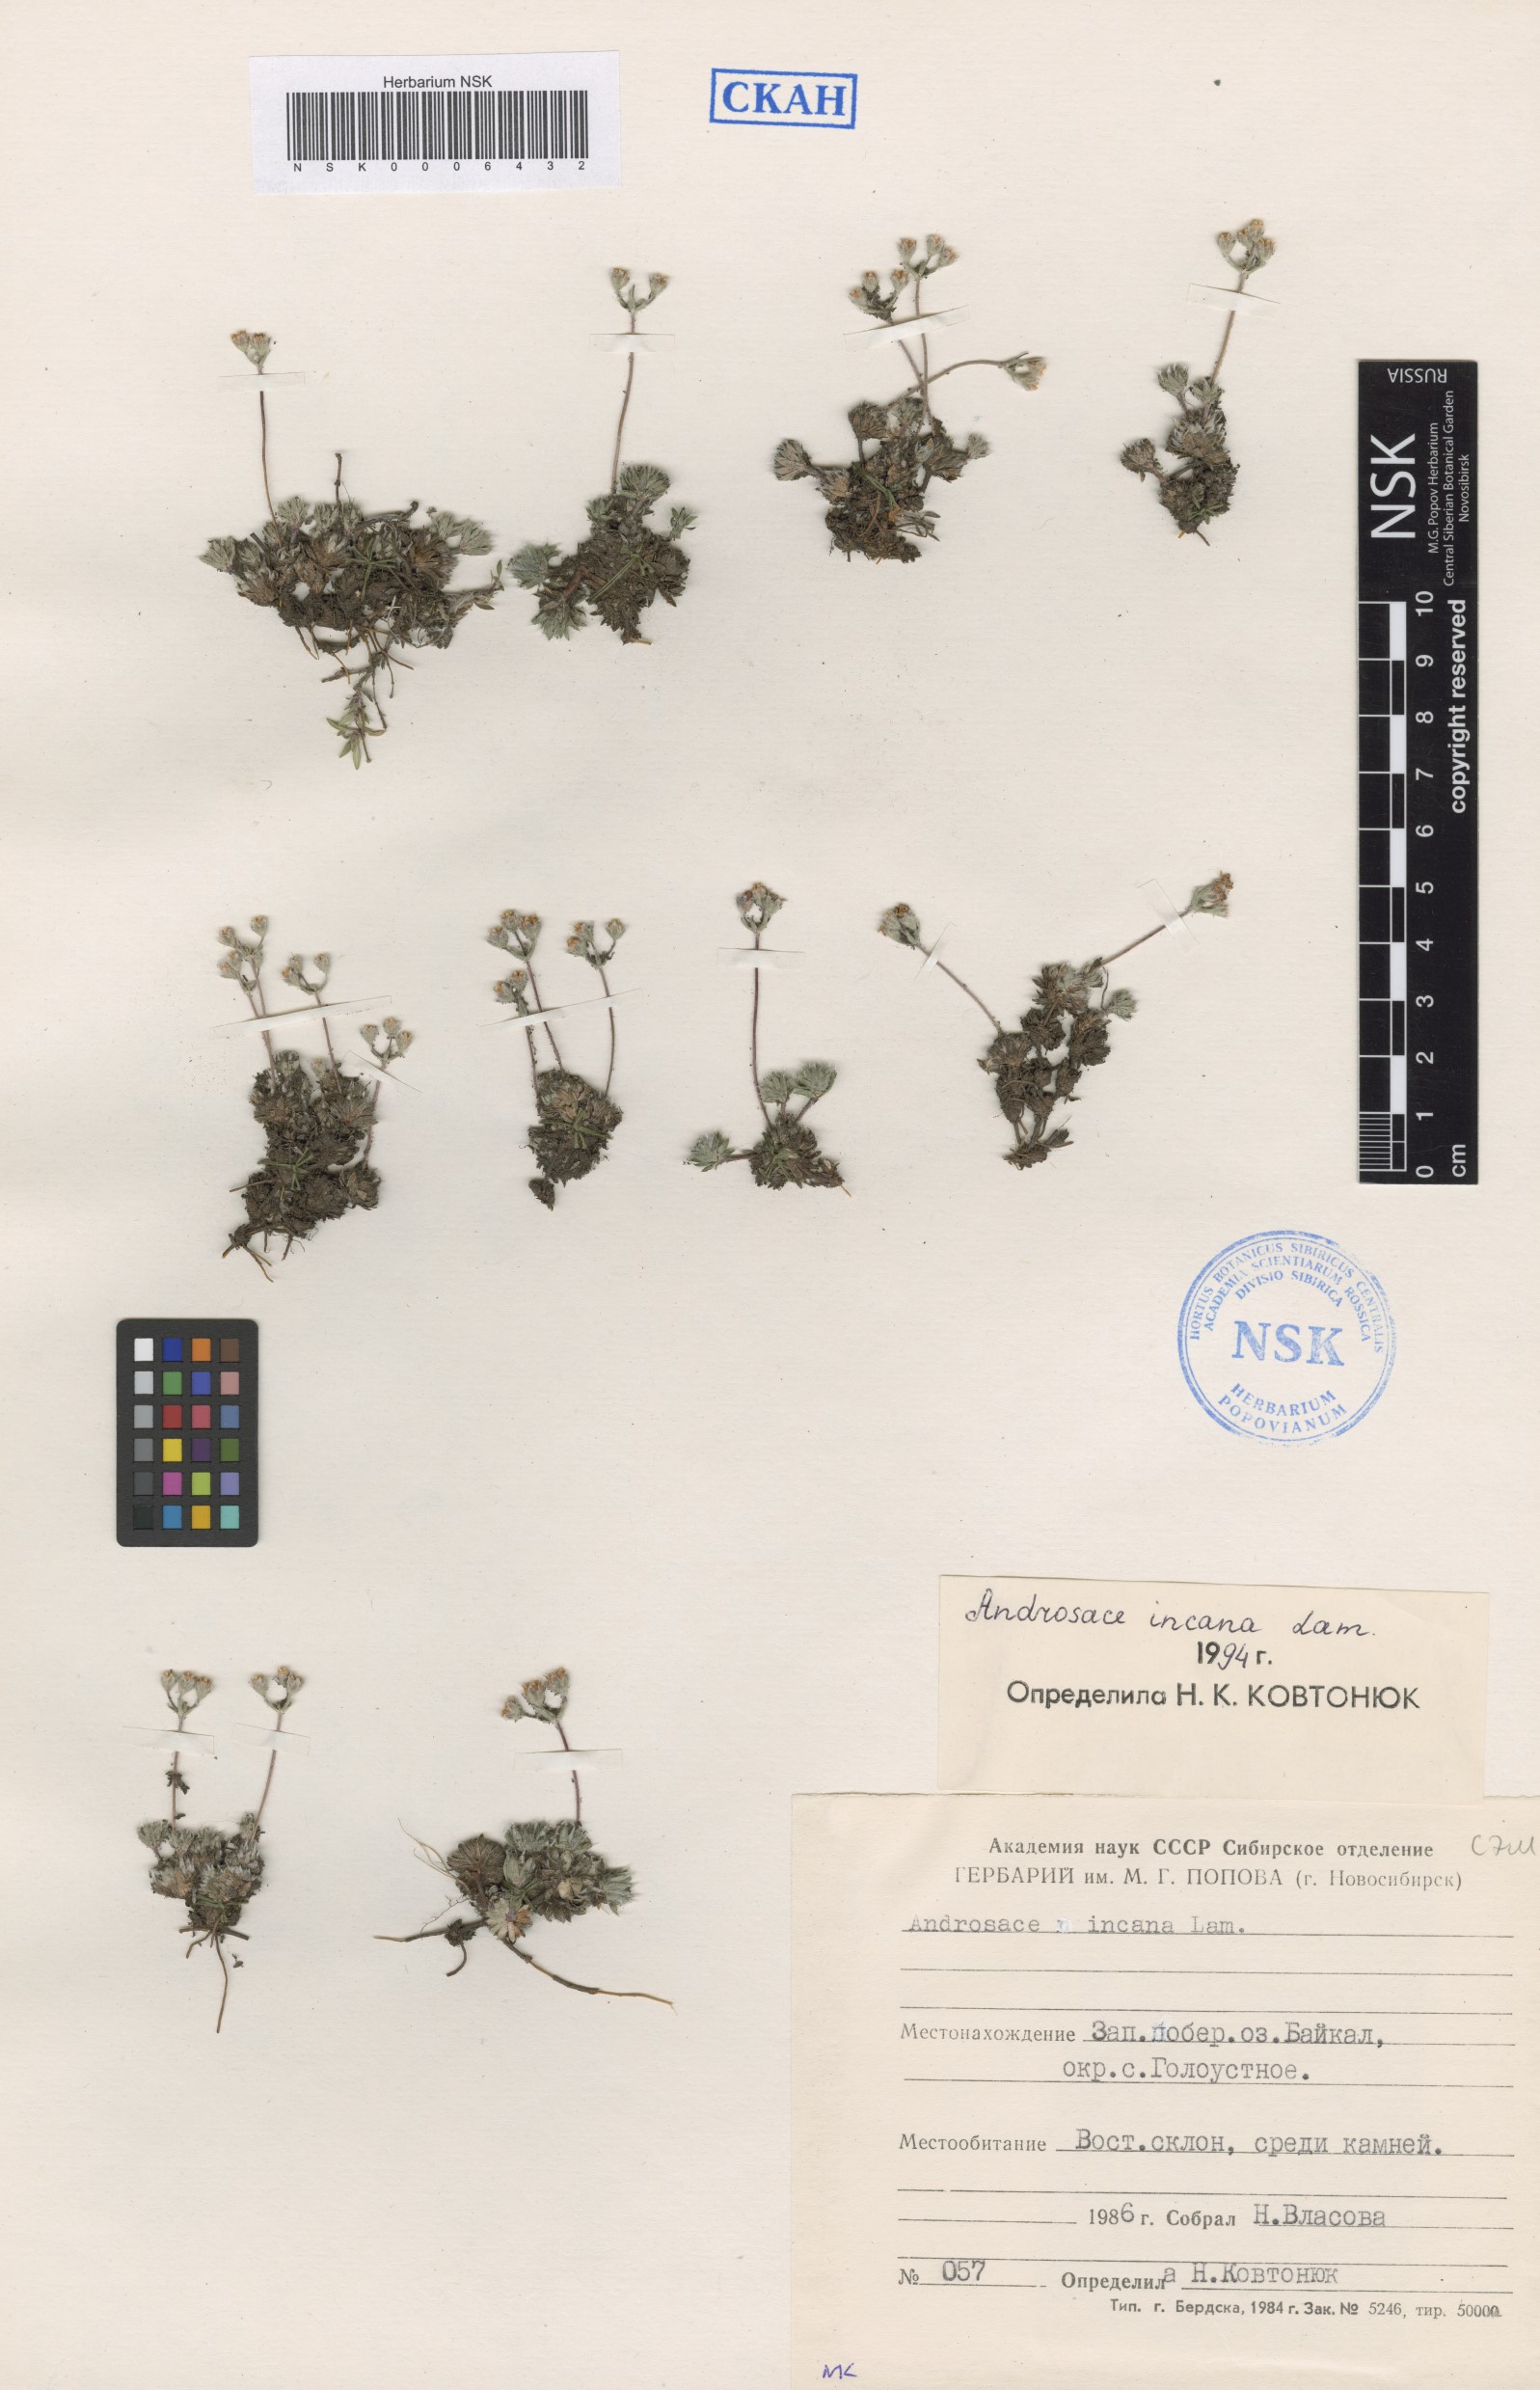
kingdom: Plantae
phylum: Tracheophyta
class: Magnoliopsida
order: Ericales
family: Primulaceae
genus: Androsace
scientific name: Androsace incana
